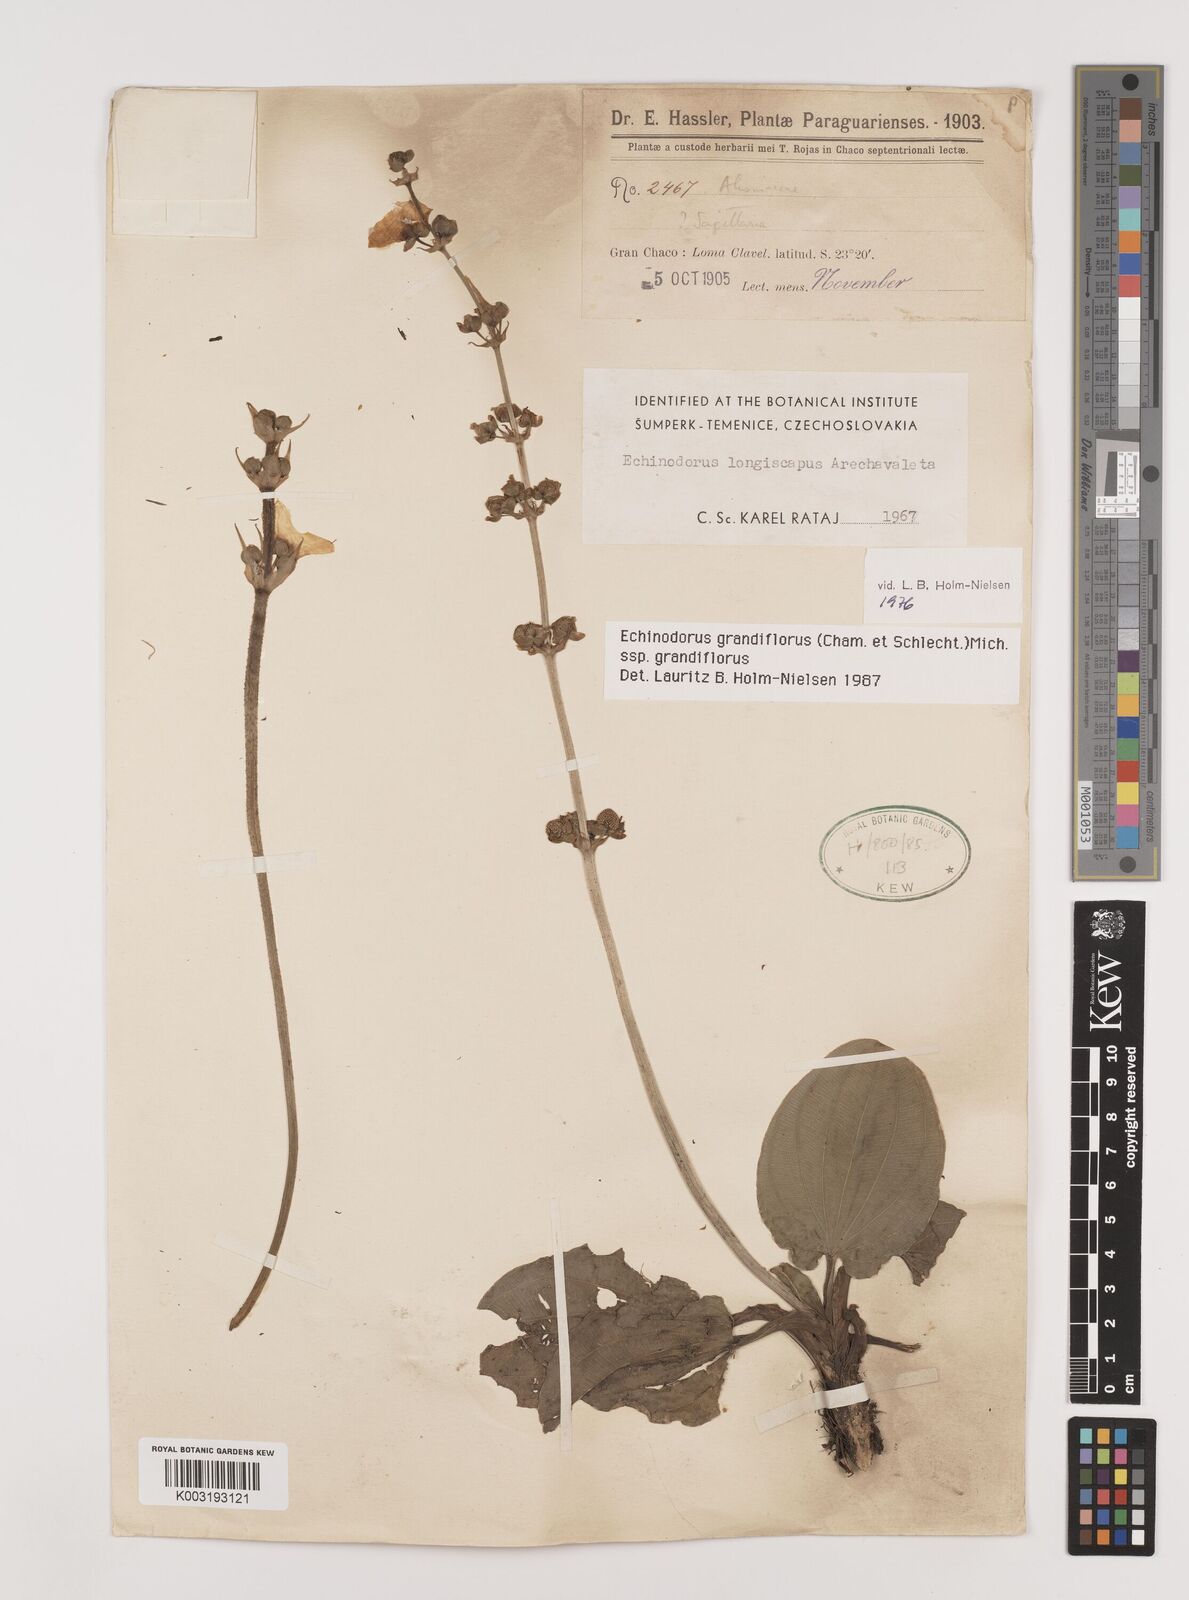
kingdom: Plantae
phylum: Tracheophyta
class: Liliopsida
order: Alismatales
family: Alismataceae
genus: Aquarius
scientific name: Aquarius grandiflorus
